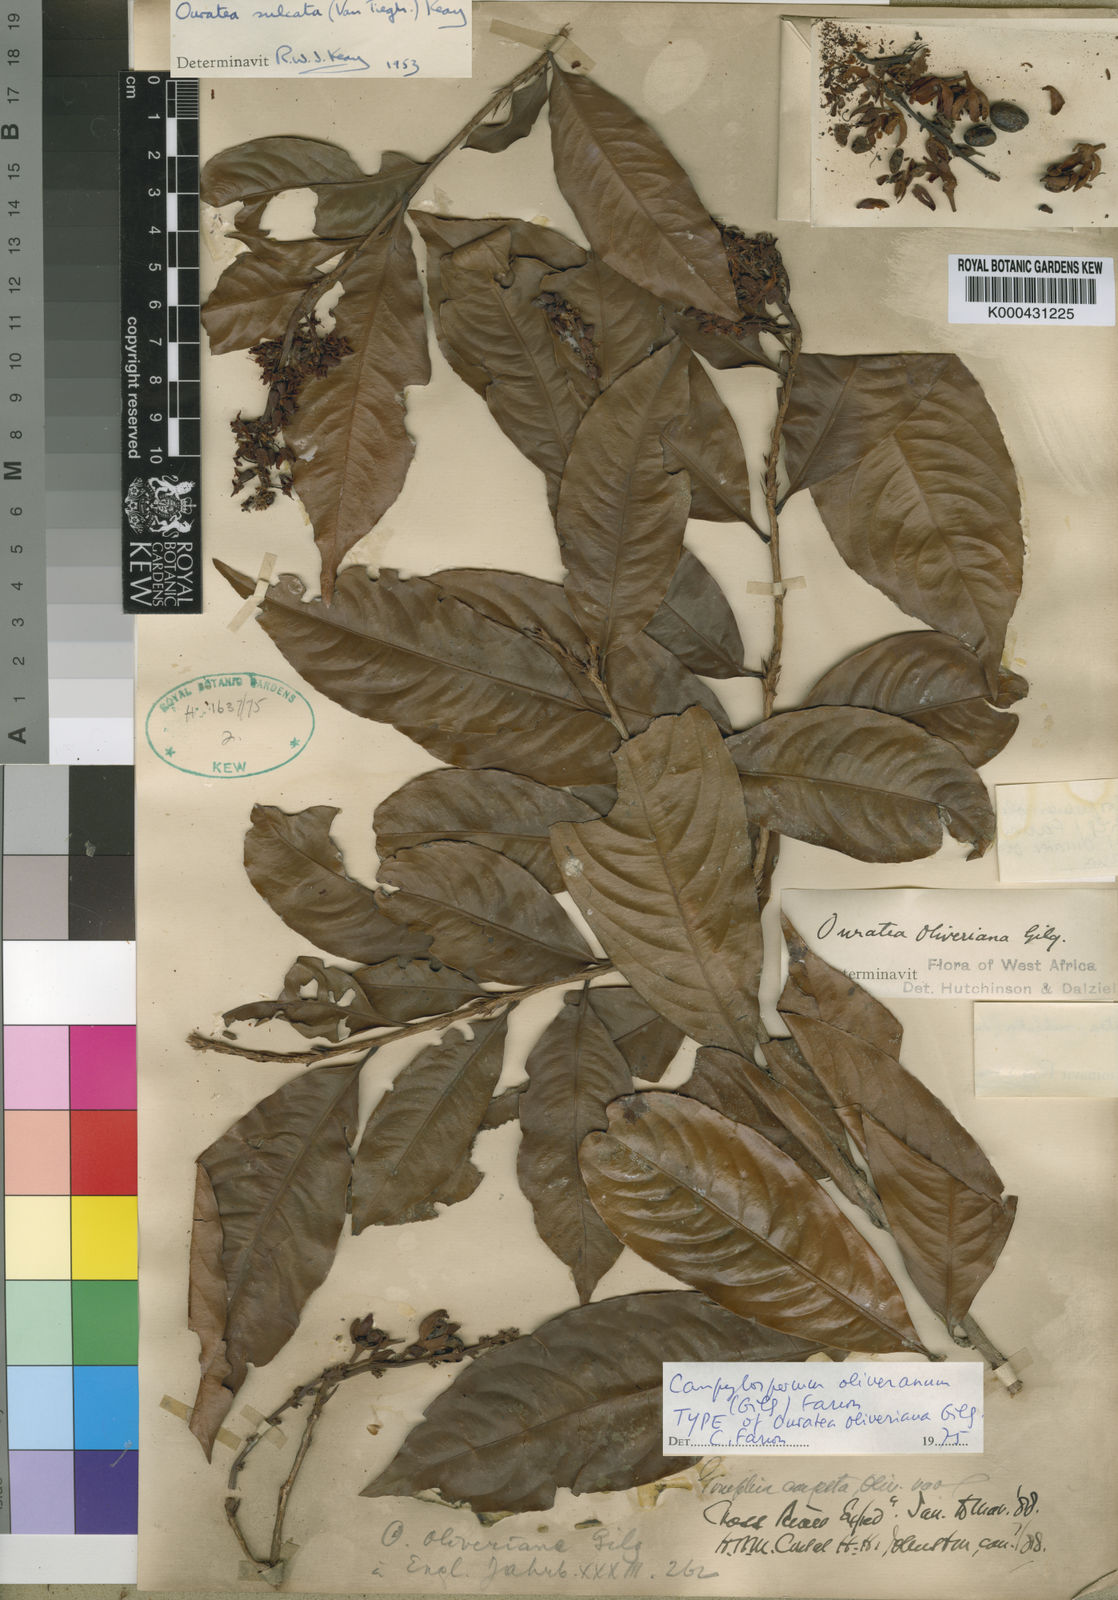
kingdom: Plantae
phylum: Tracheophyta
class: Magnoliopsida
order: Malpighiales
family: Ochnaceae
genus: Campylospermum
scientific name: Campylospermum oliverianum
